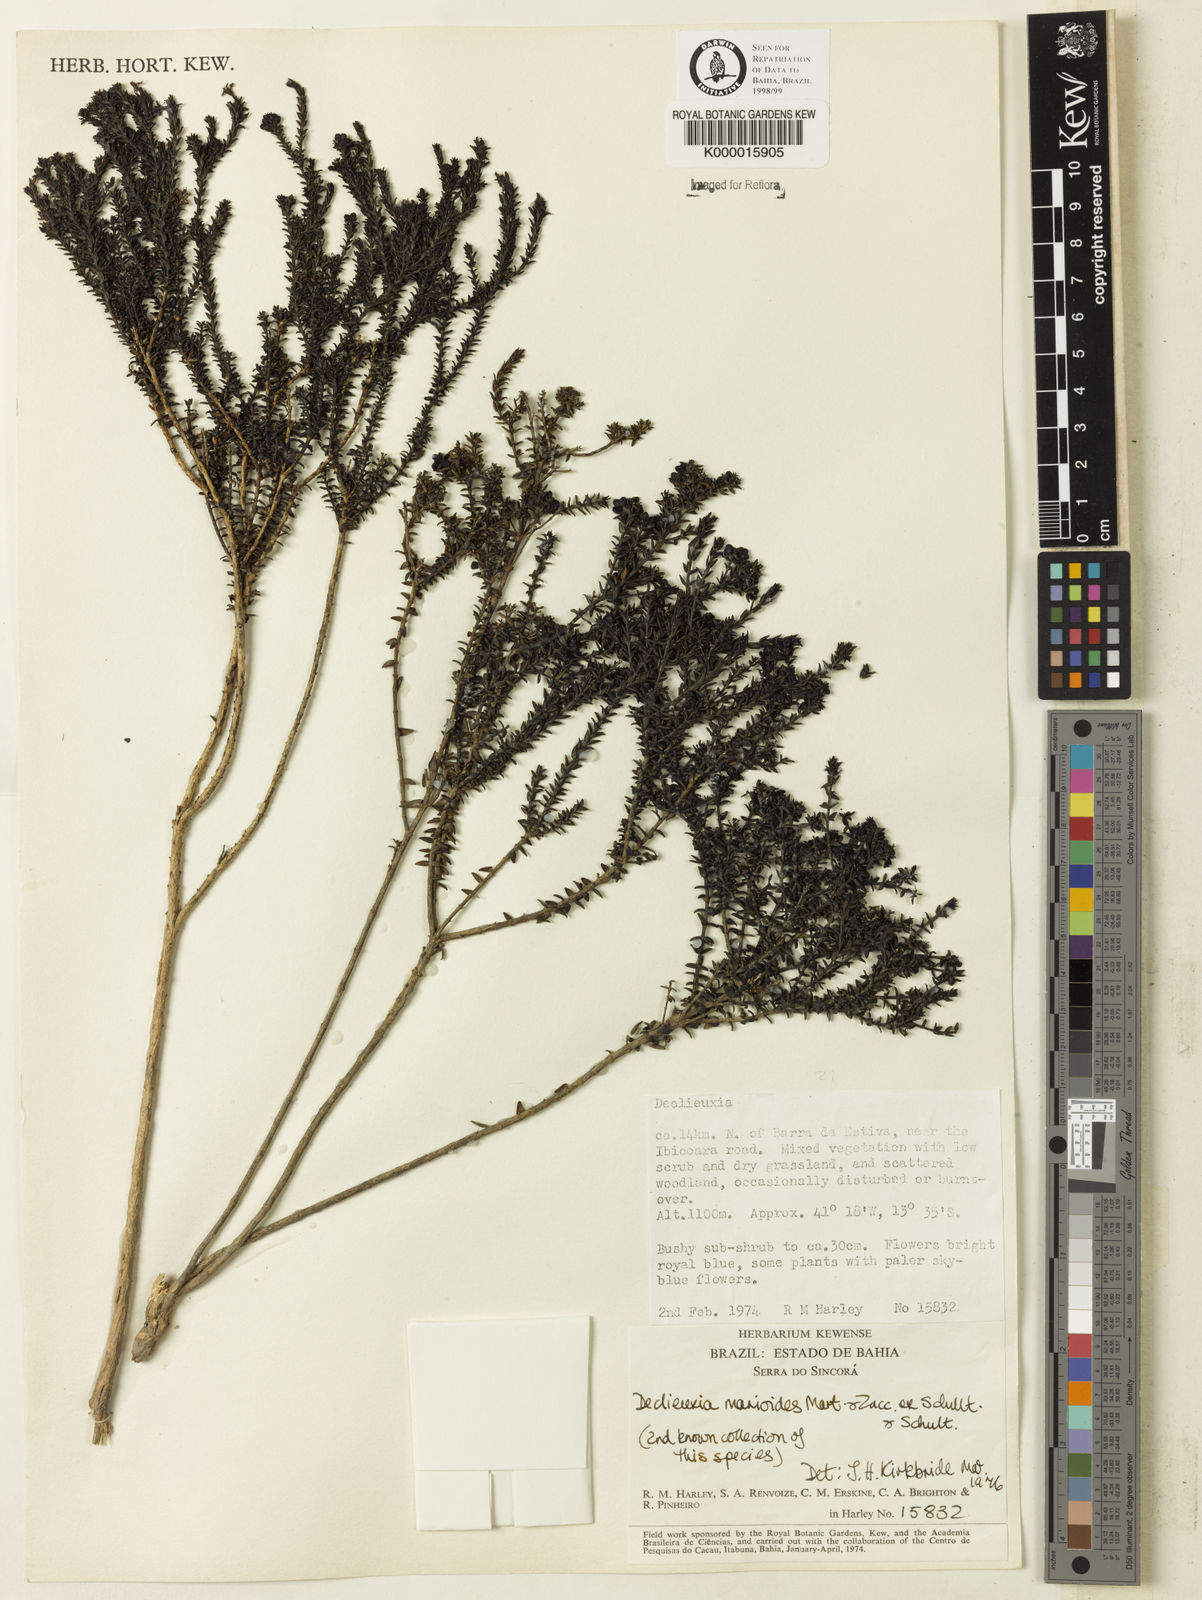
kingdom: Plantae
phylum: Tracheophyta
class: Magnoliopsida
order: Gentianales
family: Rubiaceae
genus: Declieuxia
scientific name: Declieuxia
